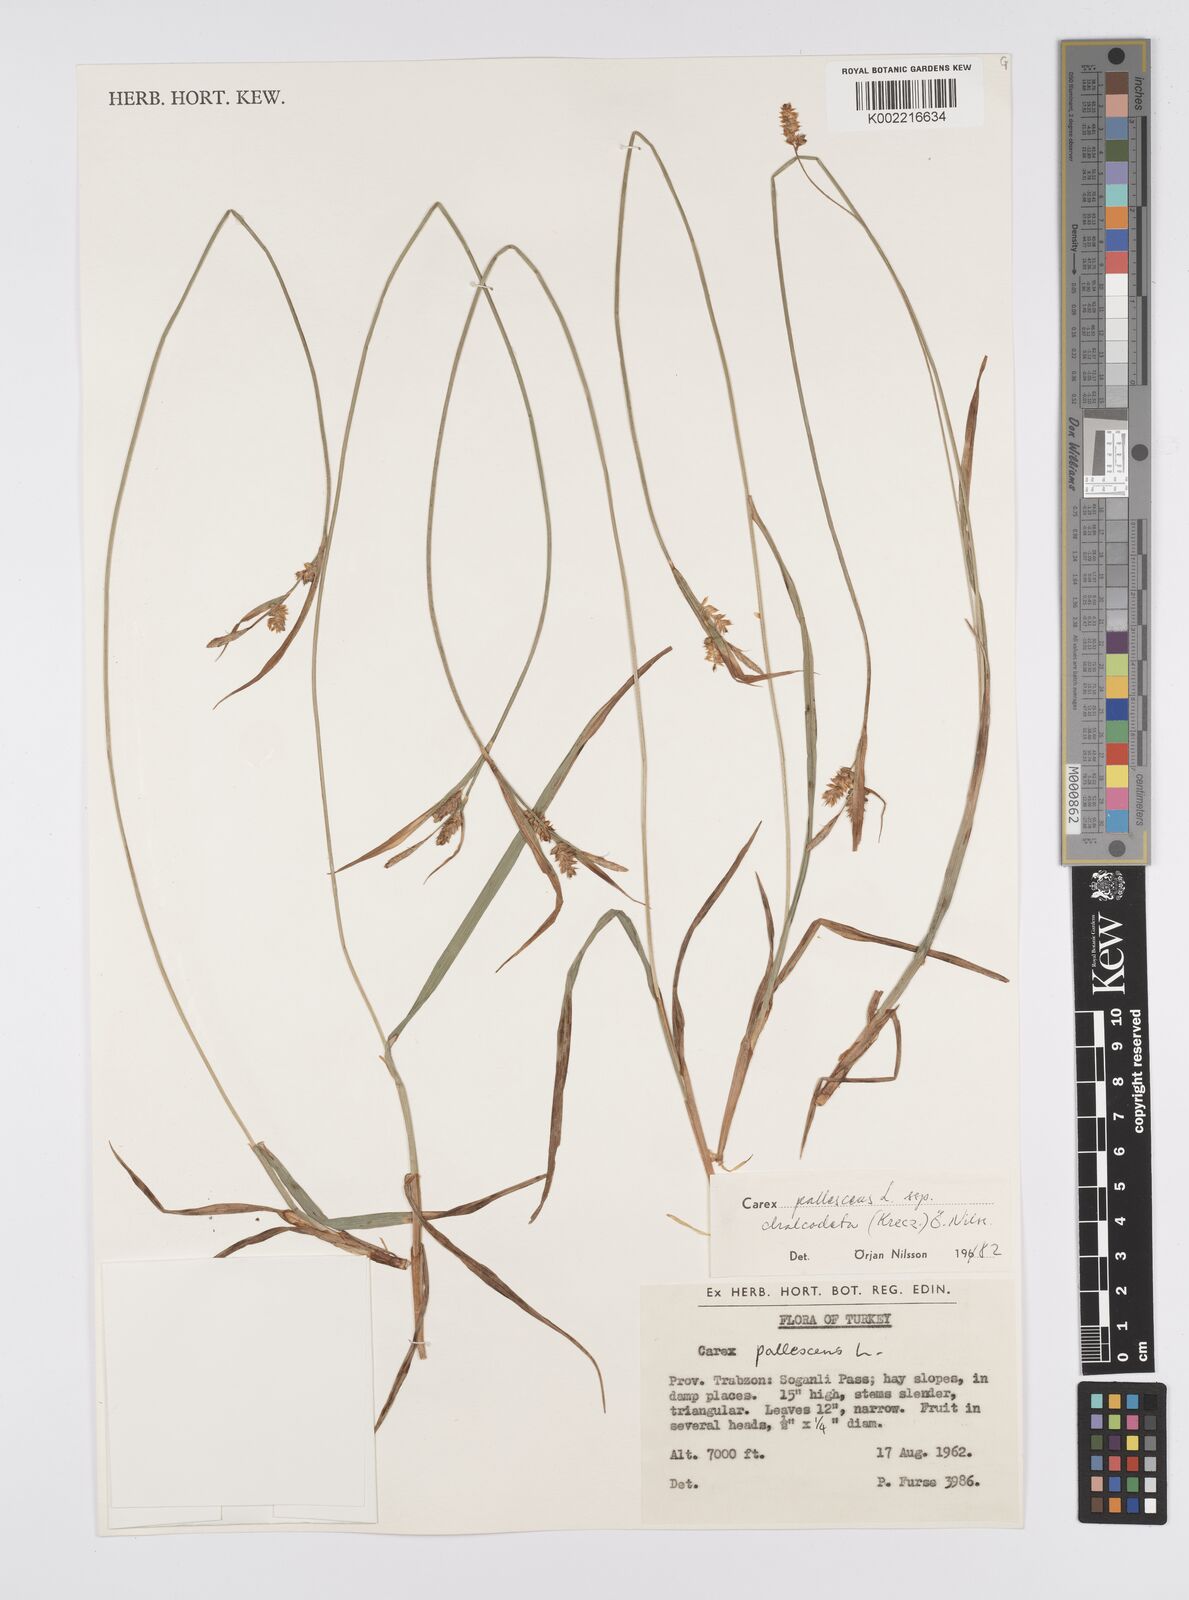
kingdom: Plantae
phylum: Tracheophyta
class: Liliopsida
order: Poales
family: Cyperaceae
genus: Carex
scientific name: Carex pallescens
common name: Pale sedge
